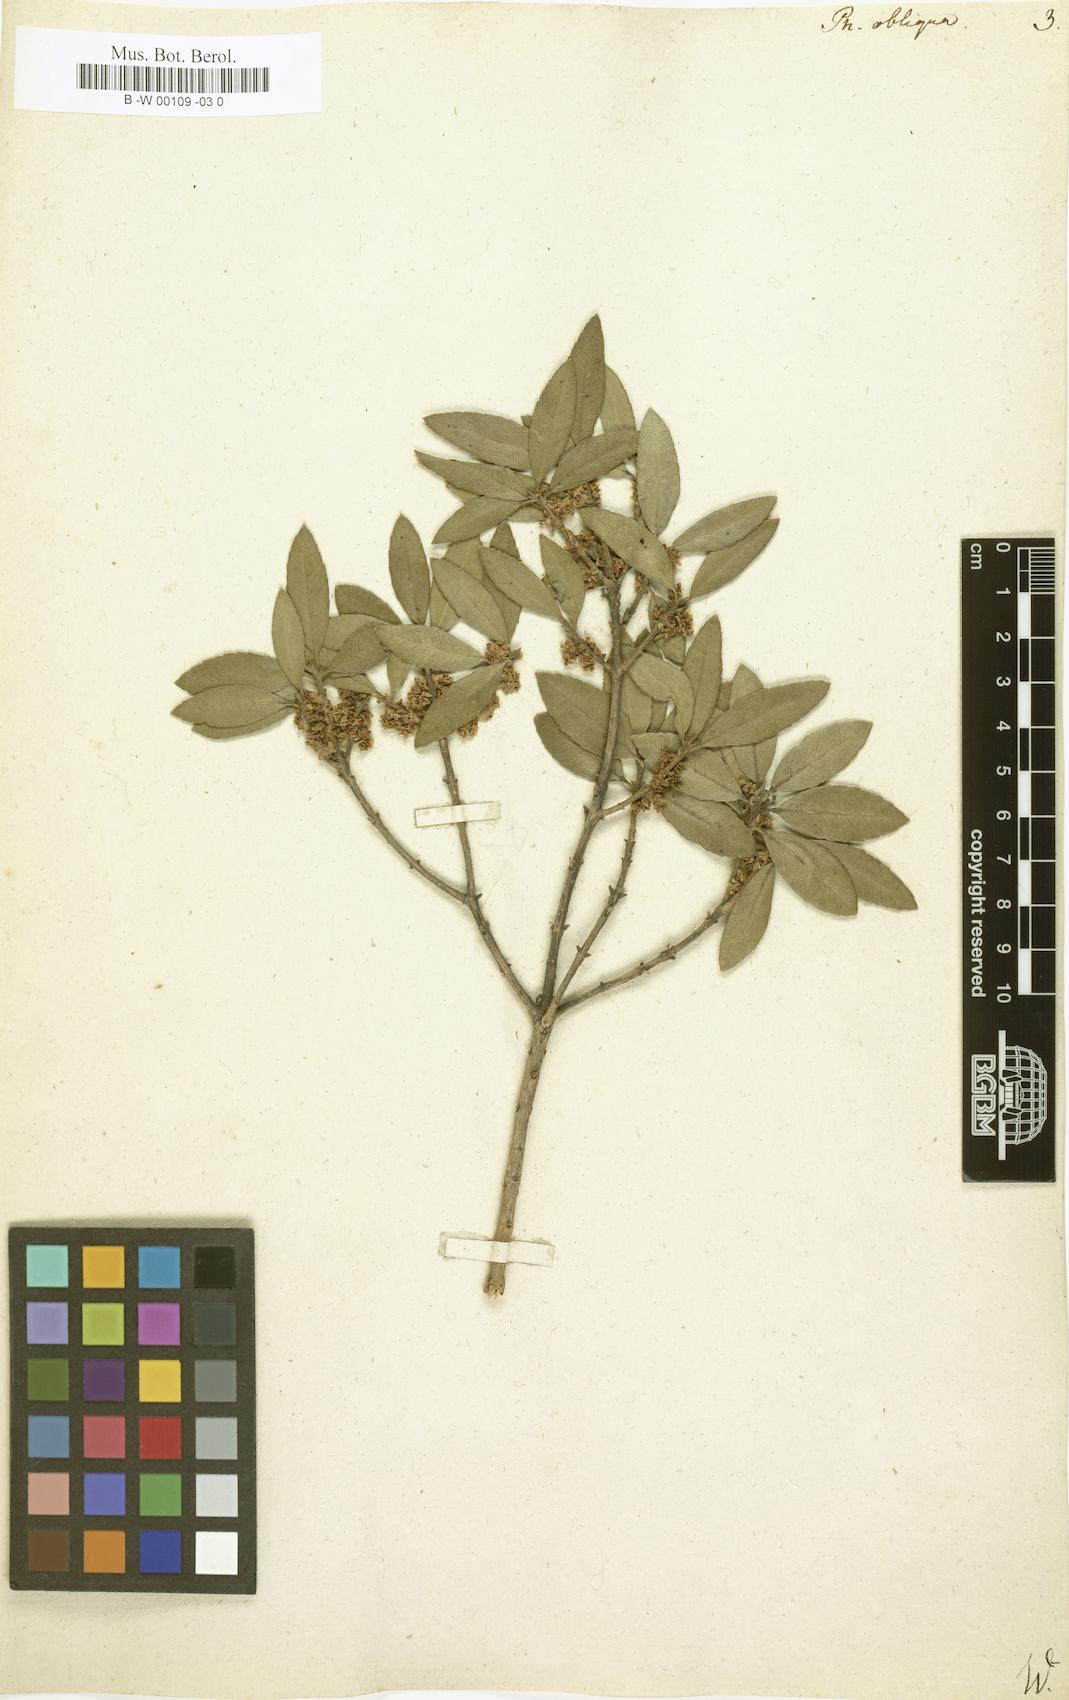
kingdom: Plantae
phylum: Tracheophyta
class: Magnoliopsida
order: Lamiales
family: Oleaceae
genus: Phillyrea
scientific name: Phillyrea latifolia
